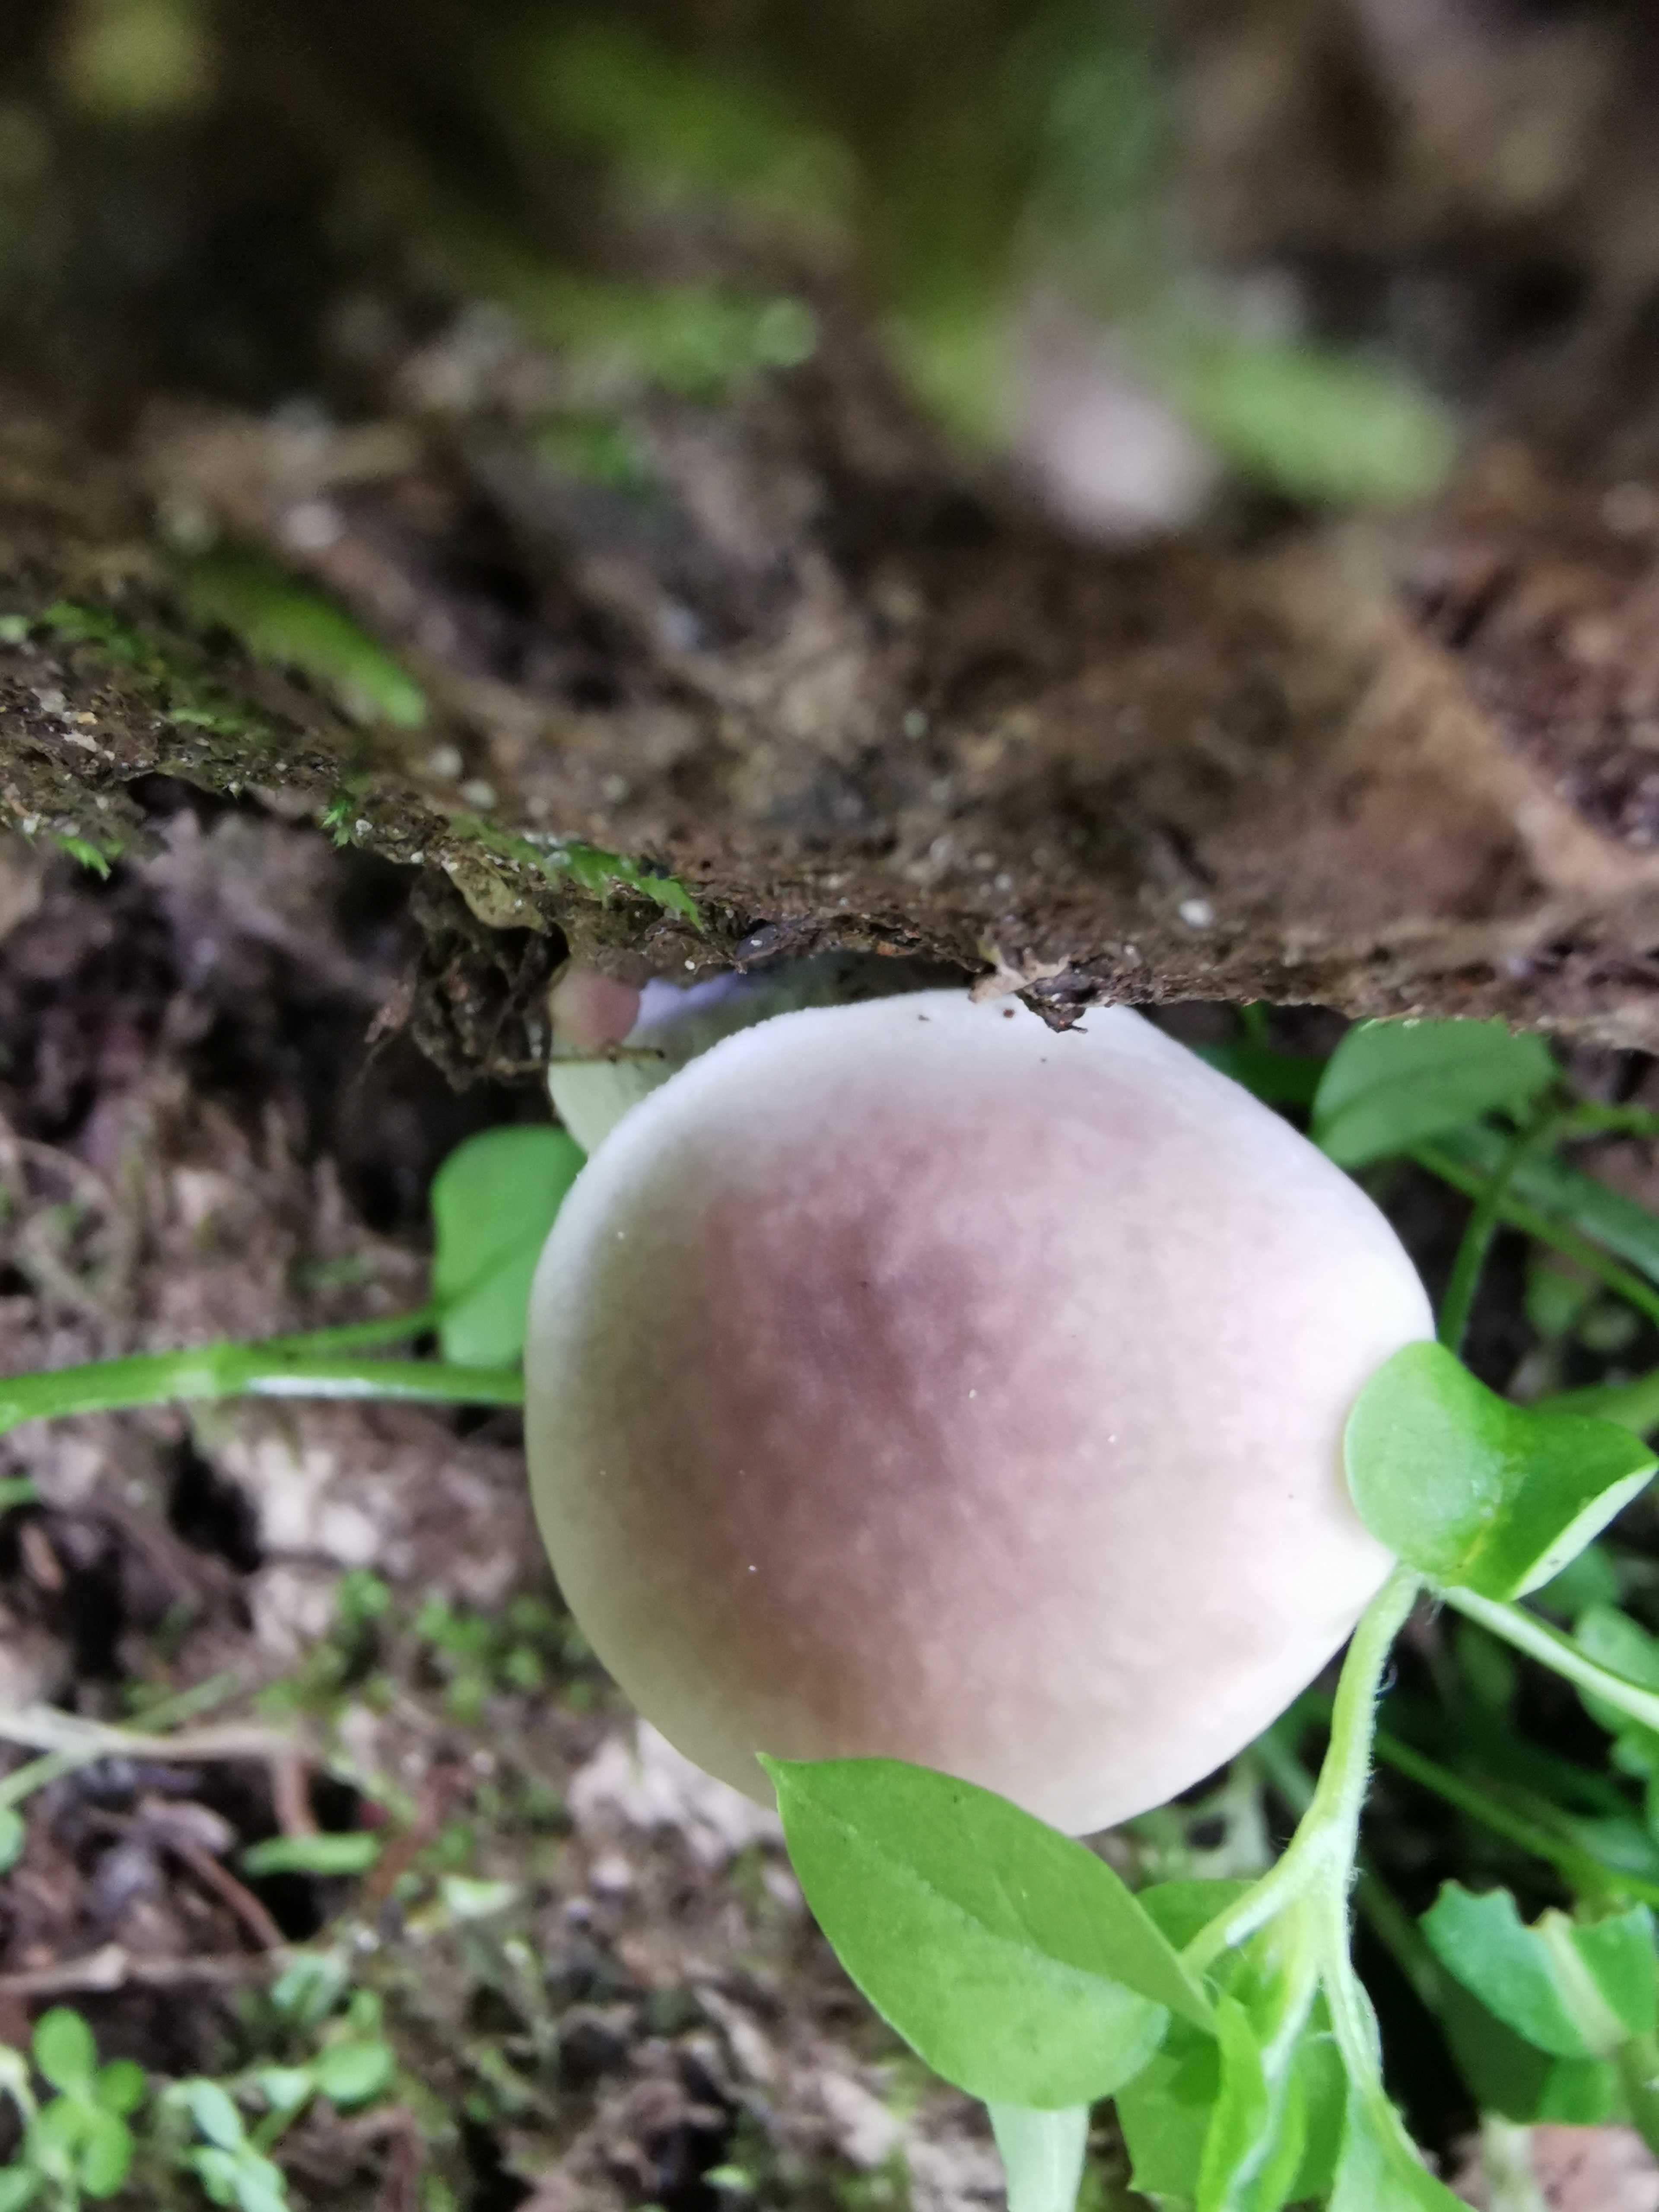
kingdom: Fungi
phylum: Basidiomycota
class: Agaricomycetes
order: Agaricales
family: Pleurotaceae
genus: Pleurotus
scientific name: Pleurotus pulmonarius
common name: sommer-østershat
